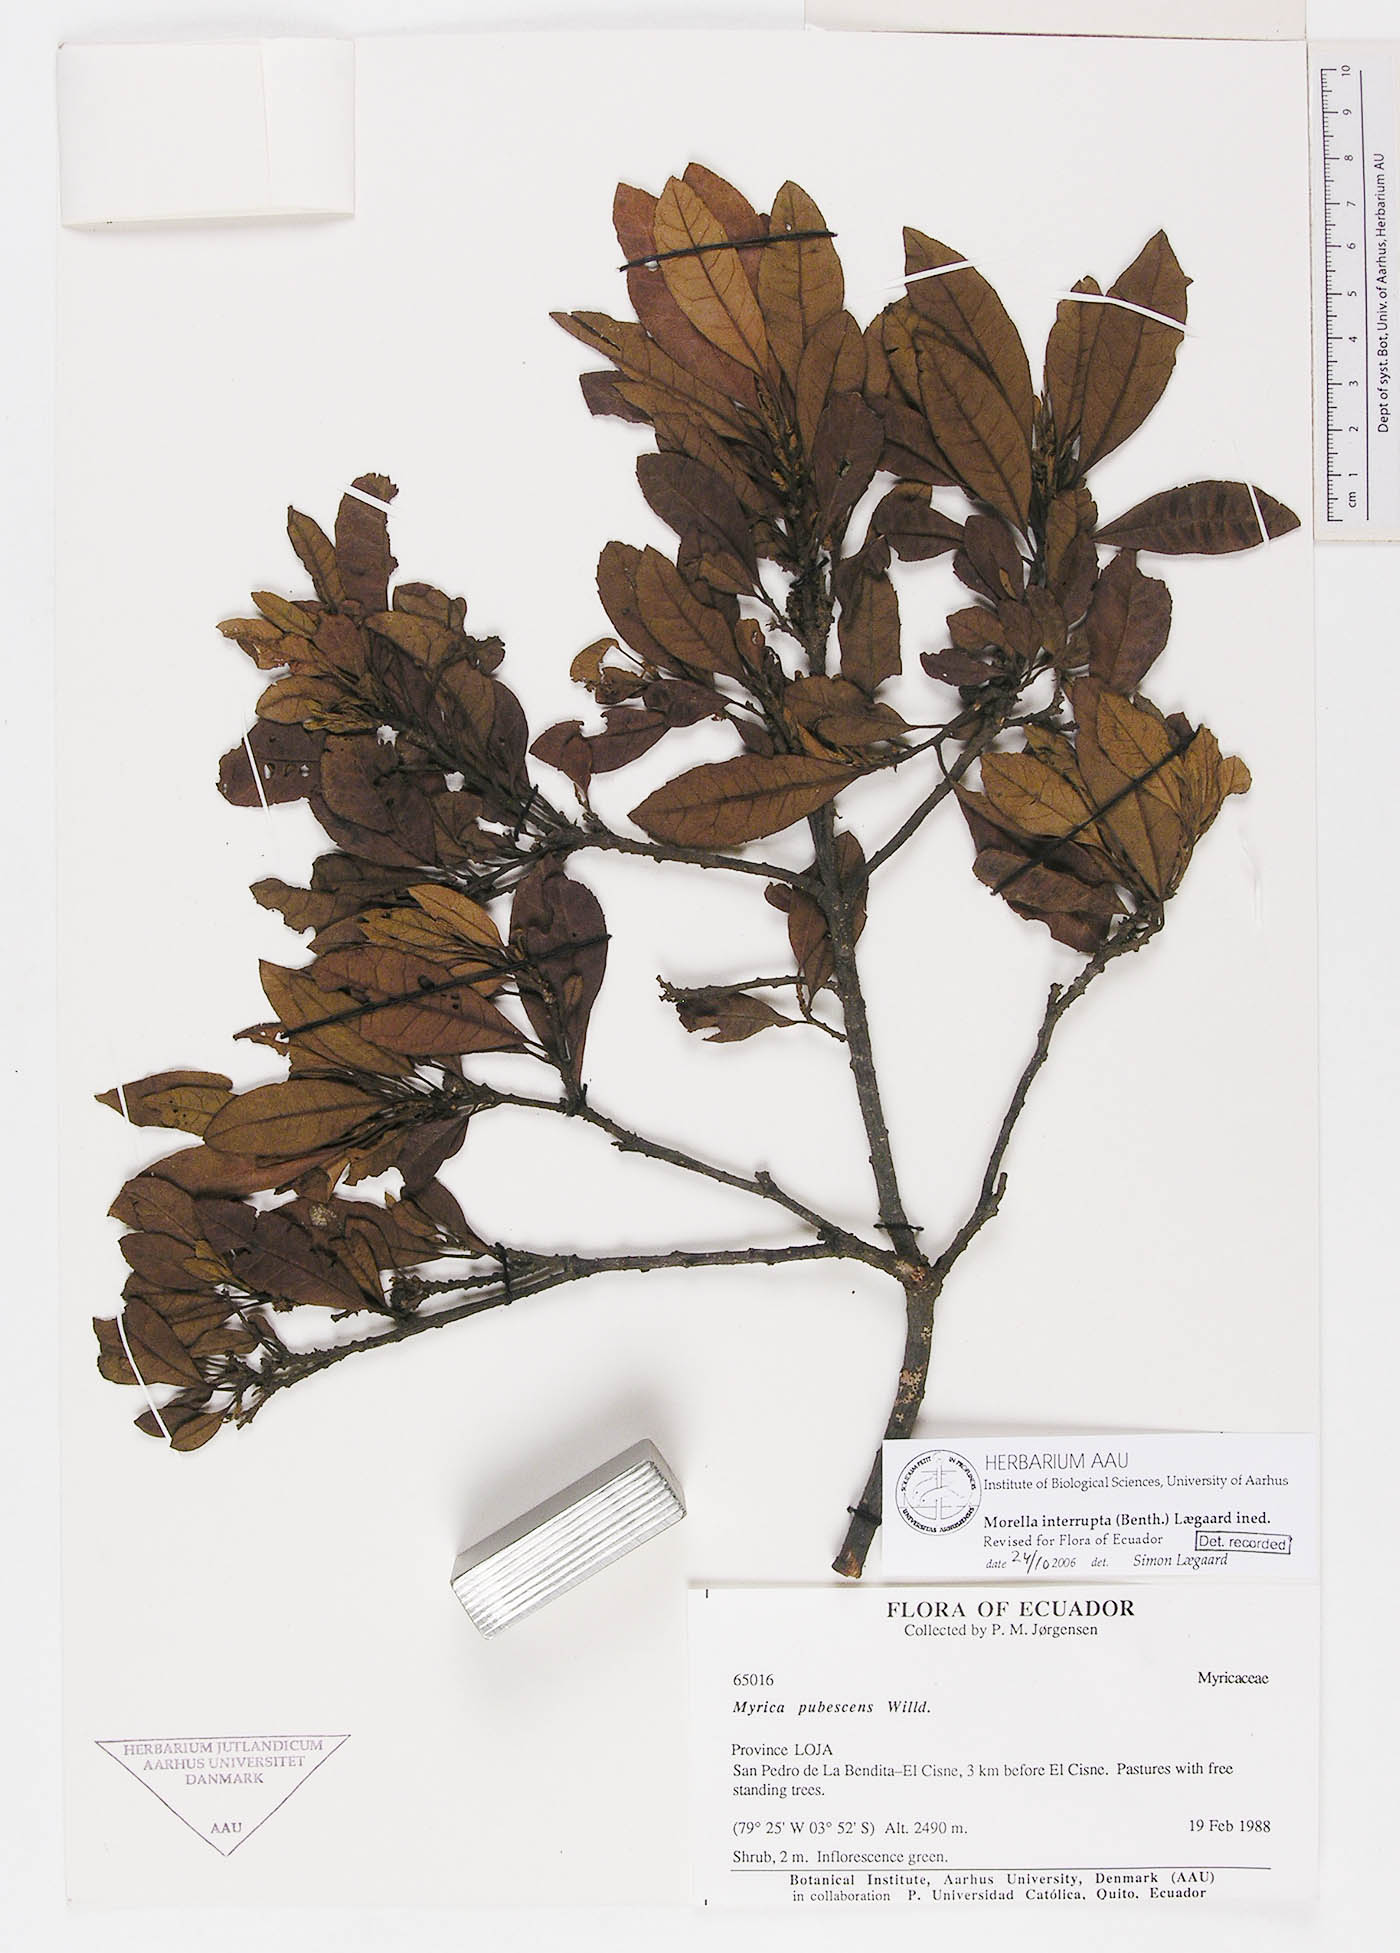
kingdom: Plantae
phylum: Tracheophyta
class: Magnoliopsida
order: Fagales
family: Myricaceae
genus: Morella
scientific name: Morella interrupta
